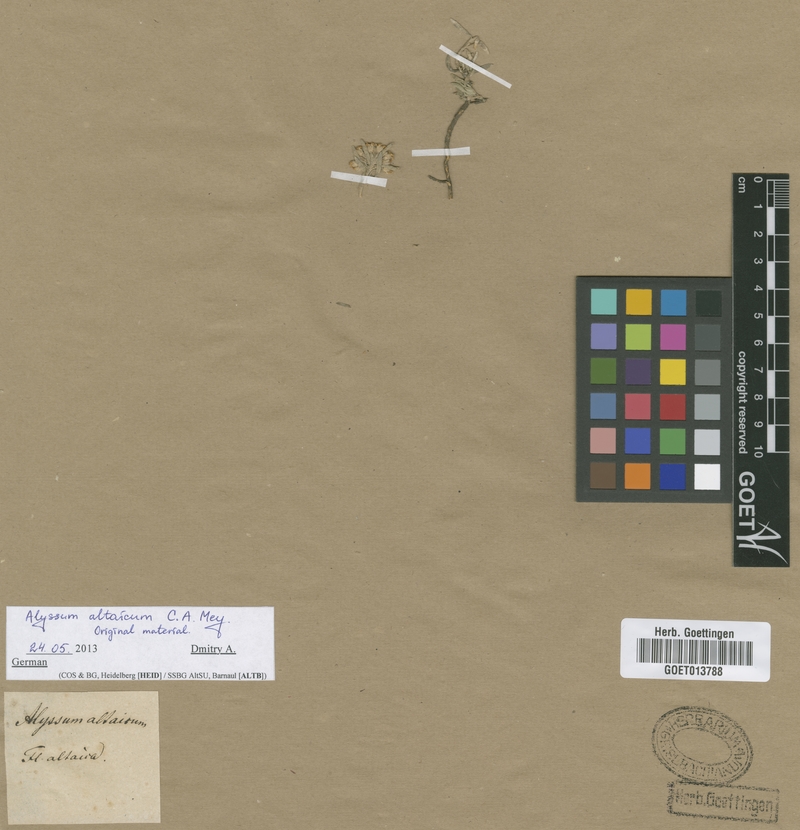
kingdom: Plantae
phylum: Tracheophyta
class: Magnoliopsida
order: Brassicales
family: Brassicaceae
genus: Alyssum
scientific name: Alyssum lenense
